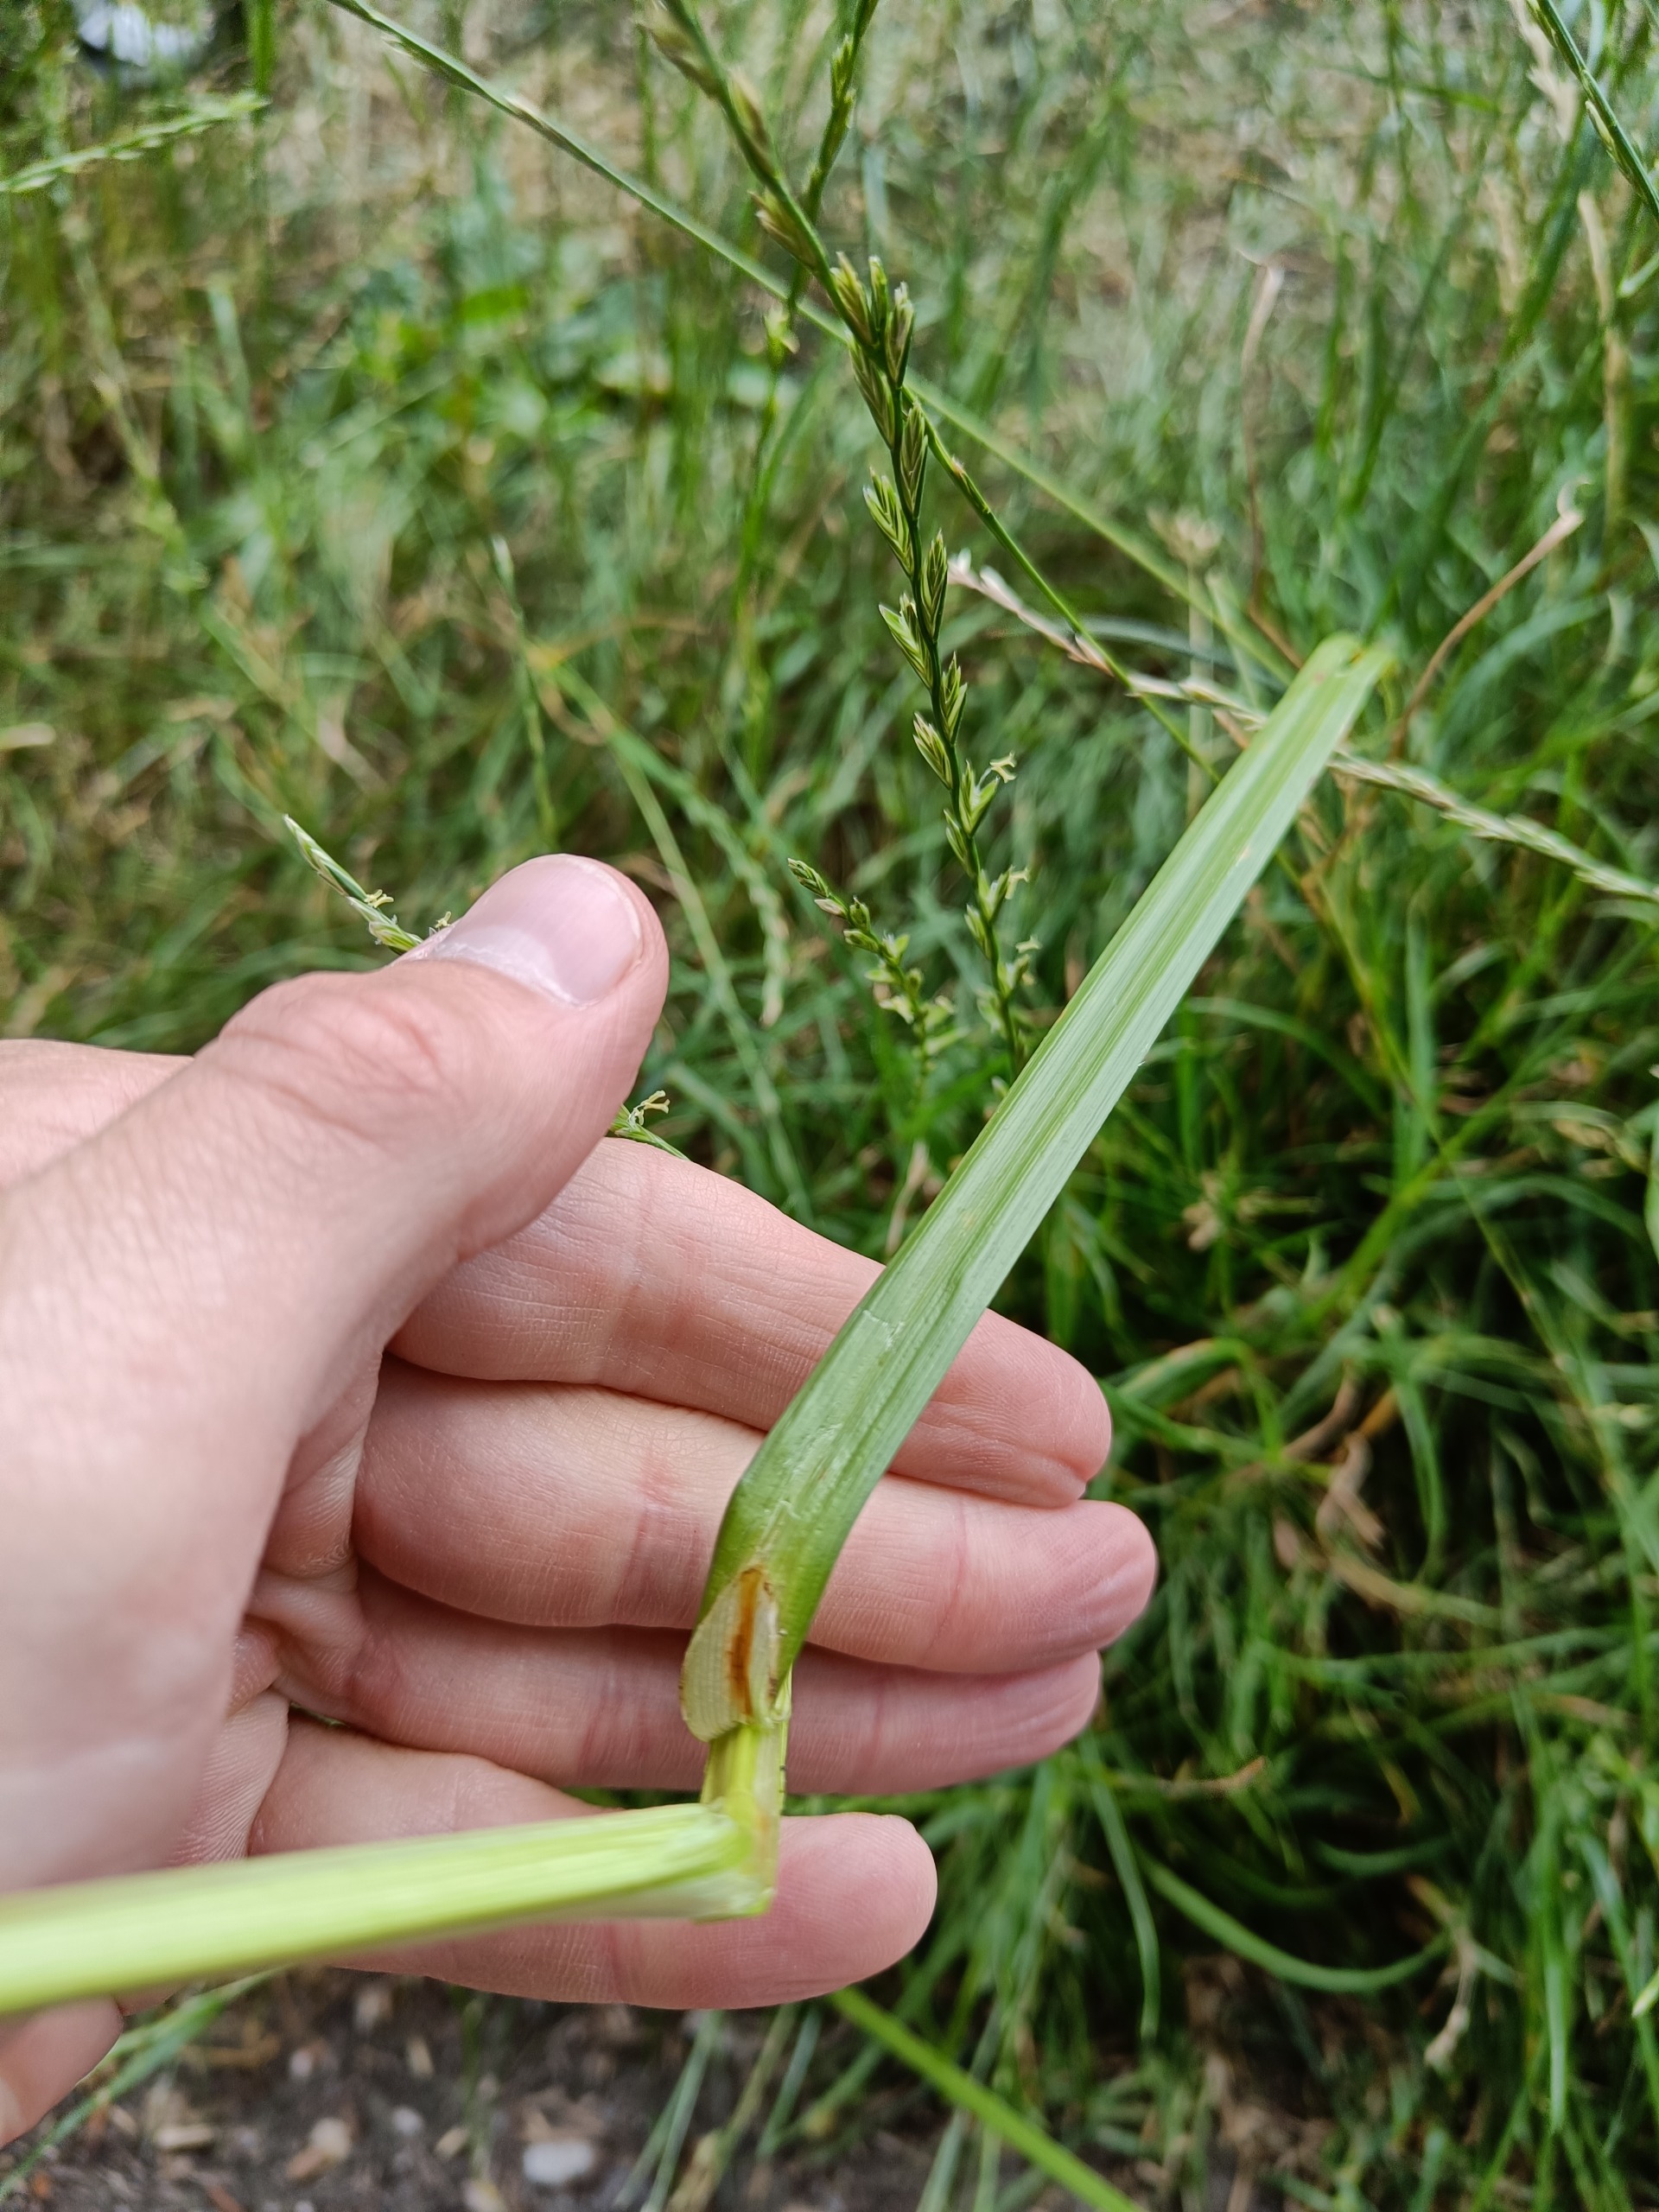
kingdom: Plantae
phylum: Tracheophyta
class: Liliopsida
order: Poales
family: Cyperaceae
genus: Carex
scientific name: Carex otrubae
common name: Sylt-star
